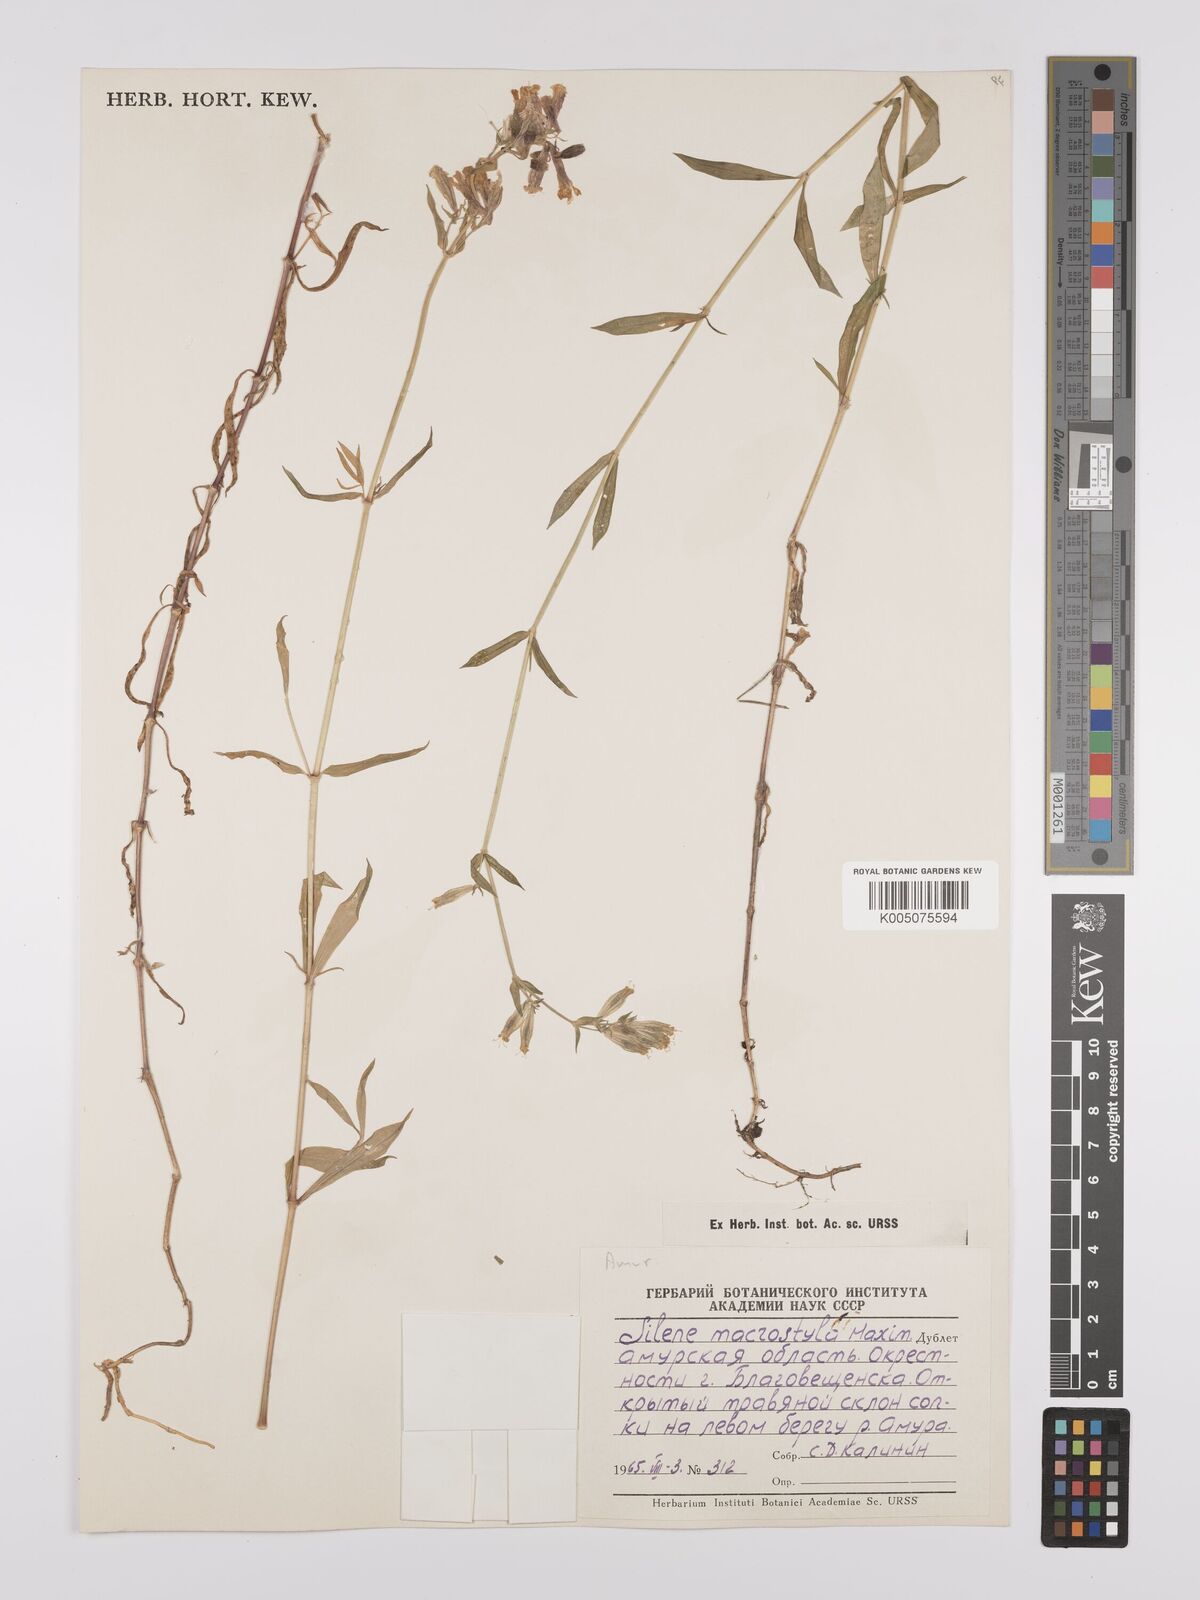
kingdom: Plantae
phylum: Tracheophyta
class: Magnoliopsida
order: Caryophyllales
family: Caryophyllaceae
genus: Silene
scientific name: Silene macrostyla
